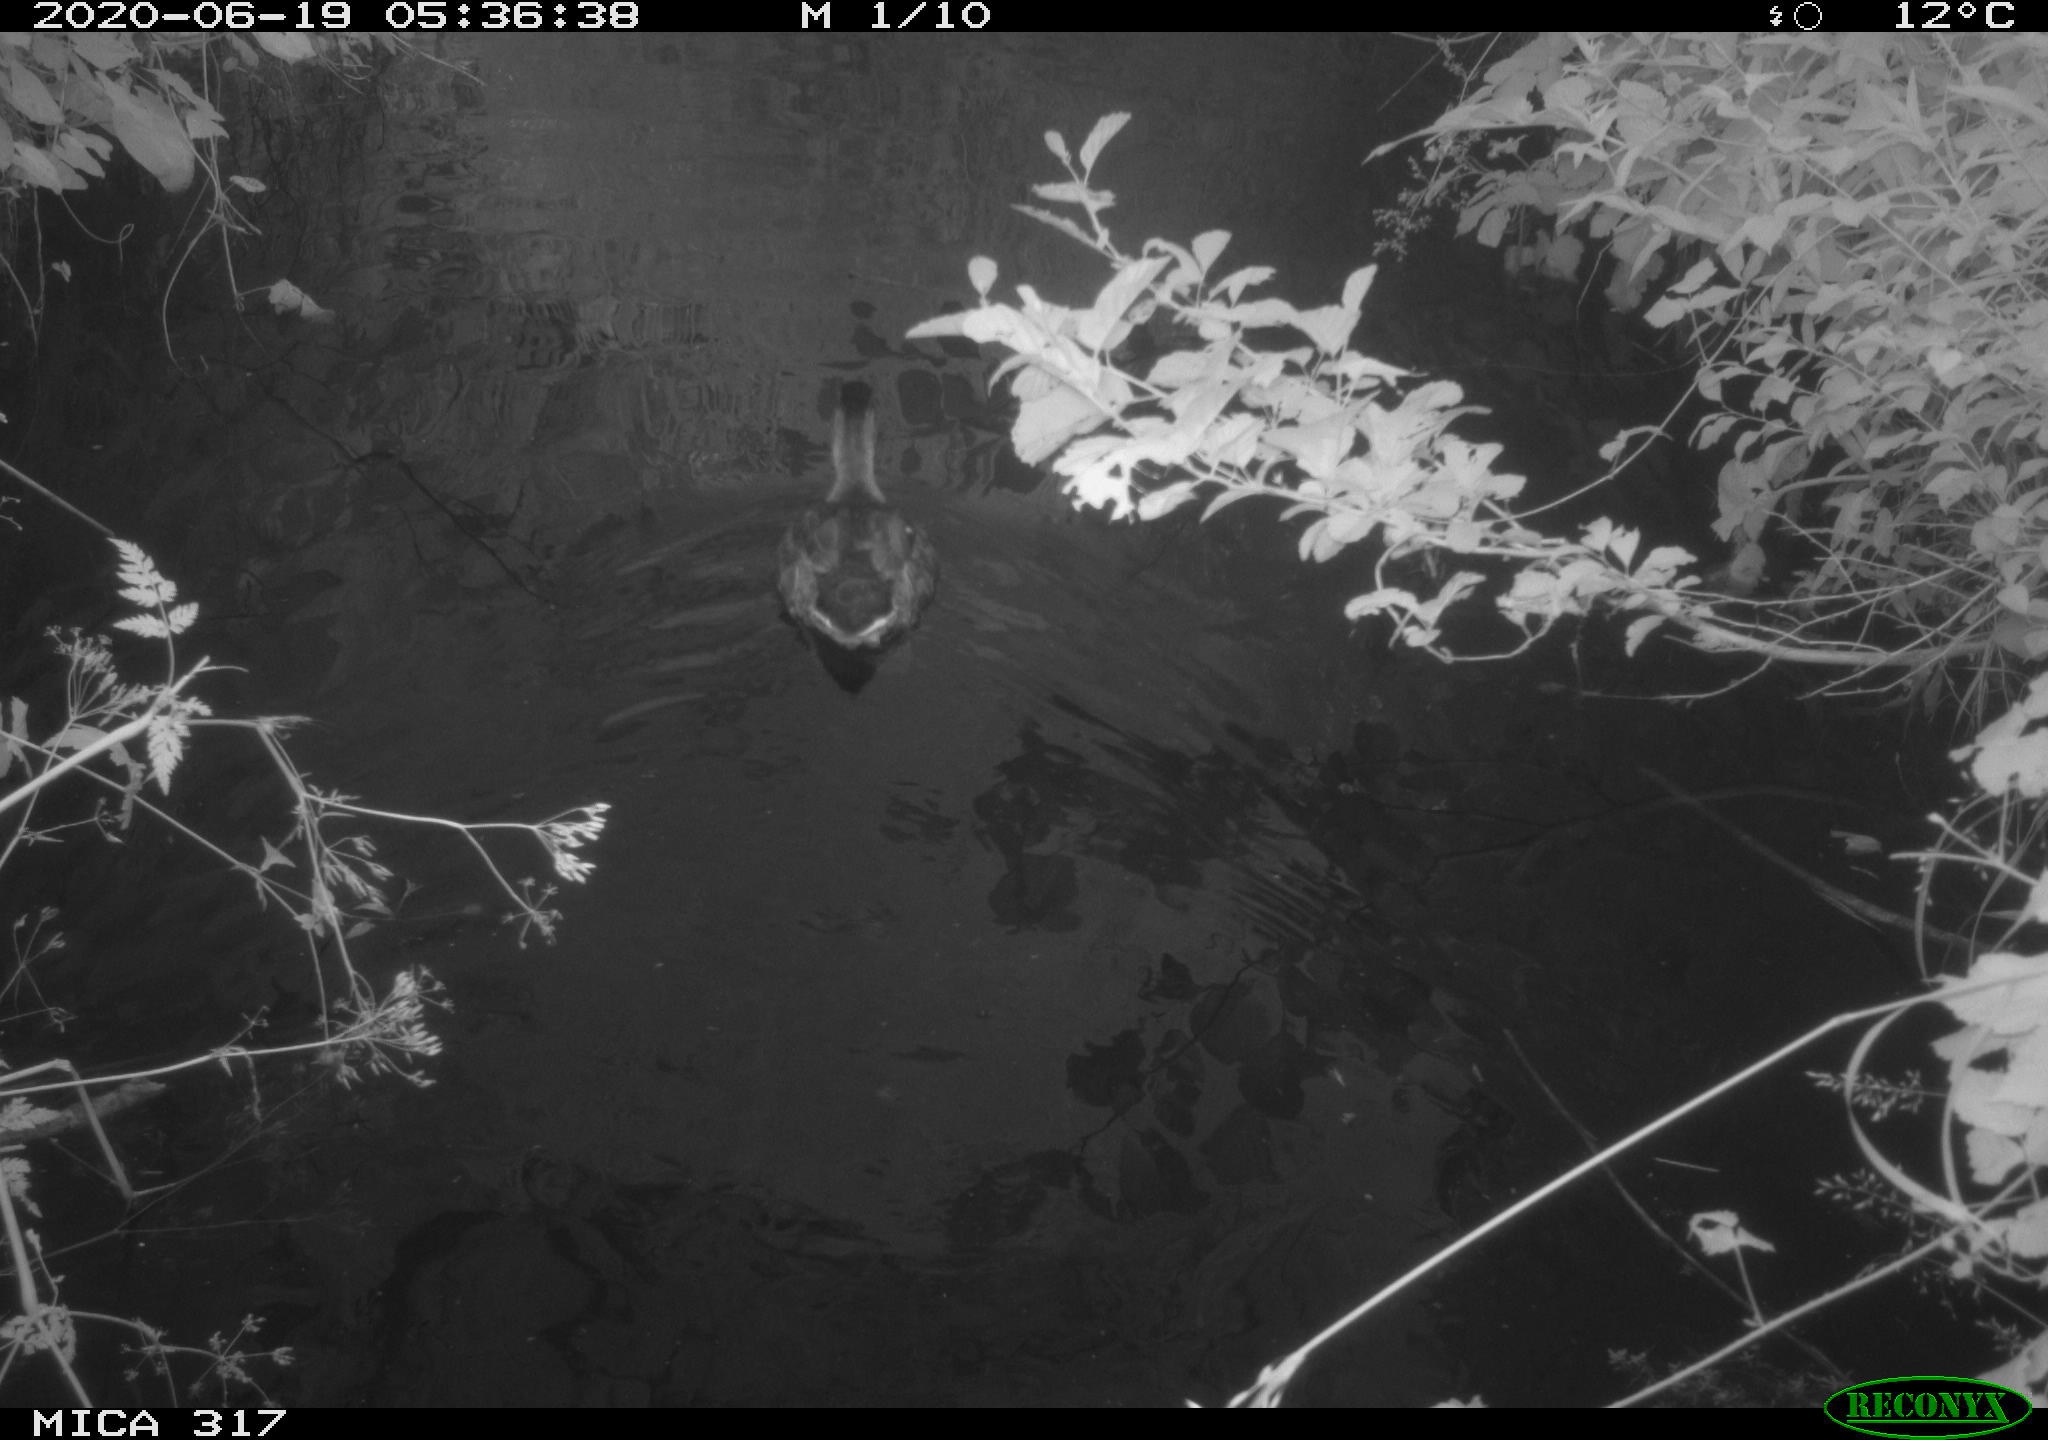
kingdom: Animalia
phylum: Chordata
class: Aves
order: Anseriformes
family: Anatidae
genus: Anas
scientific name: Anas platyrhynchos
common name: Mallard
